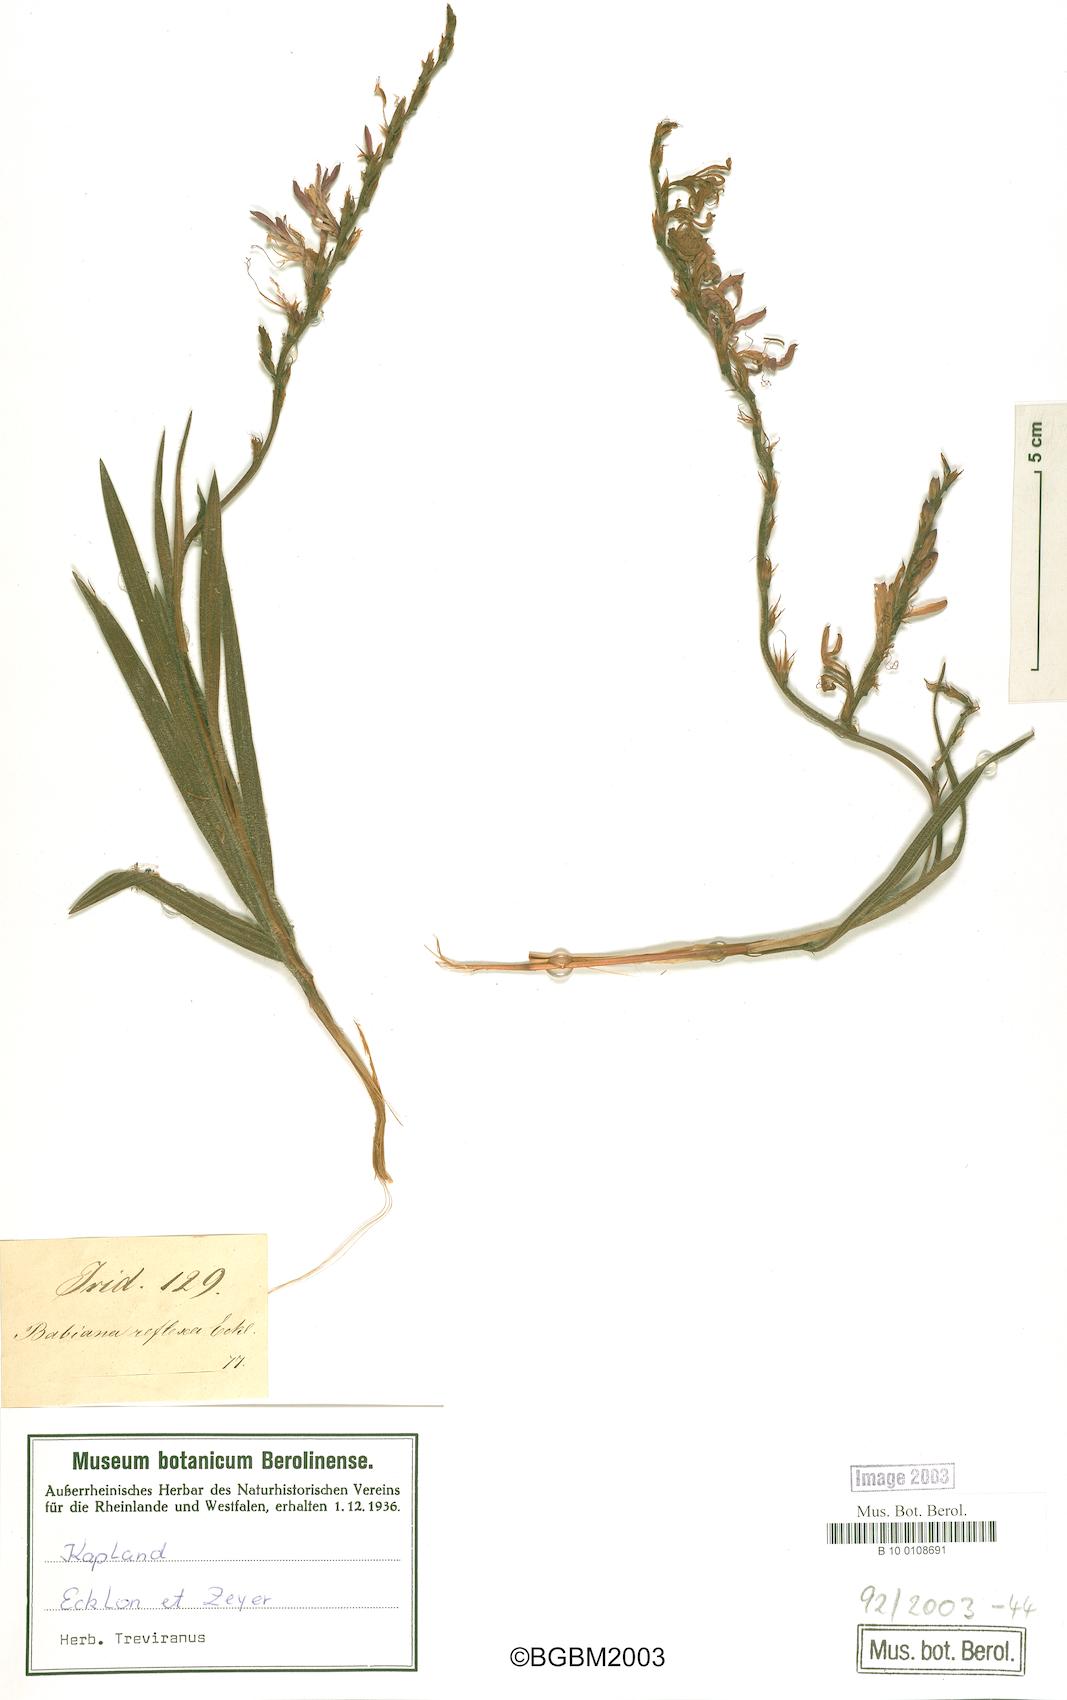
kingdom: Plantae
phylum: Tracheophyta
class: Liliopsida
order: Asparagales
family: Iridaceae
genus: Babiana
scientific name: Babiana
